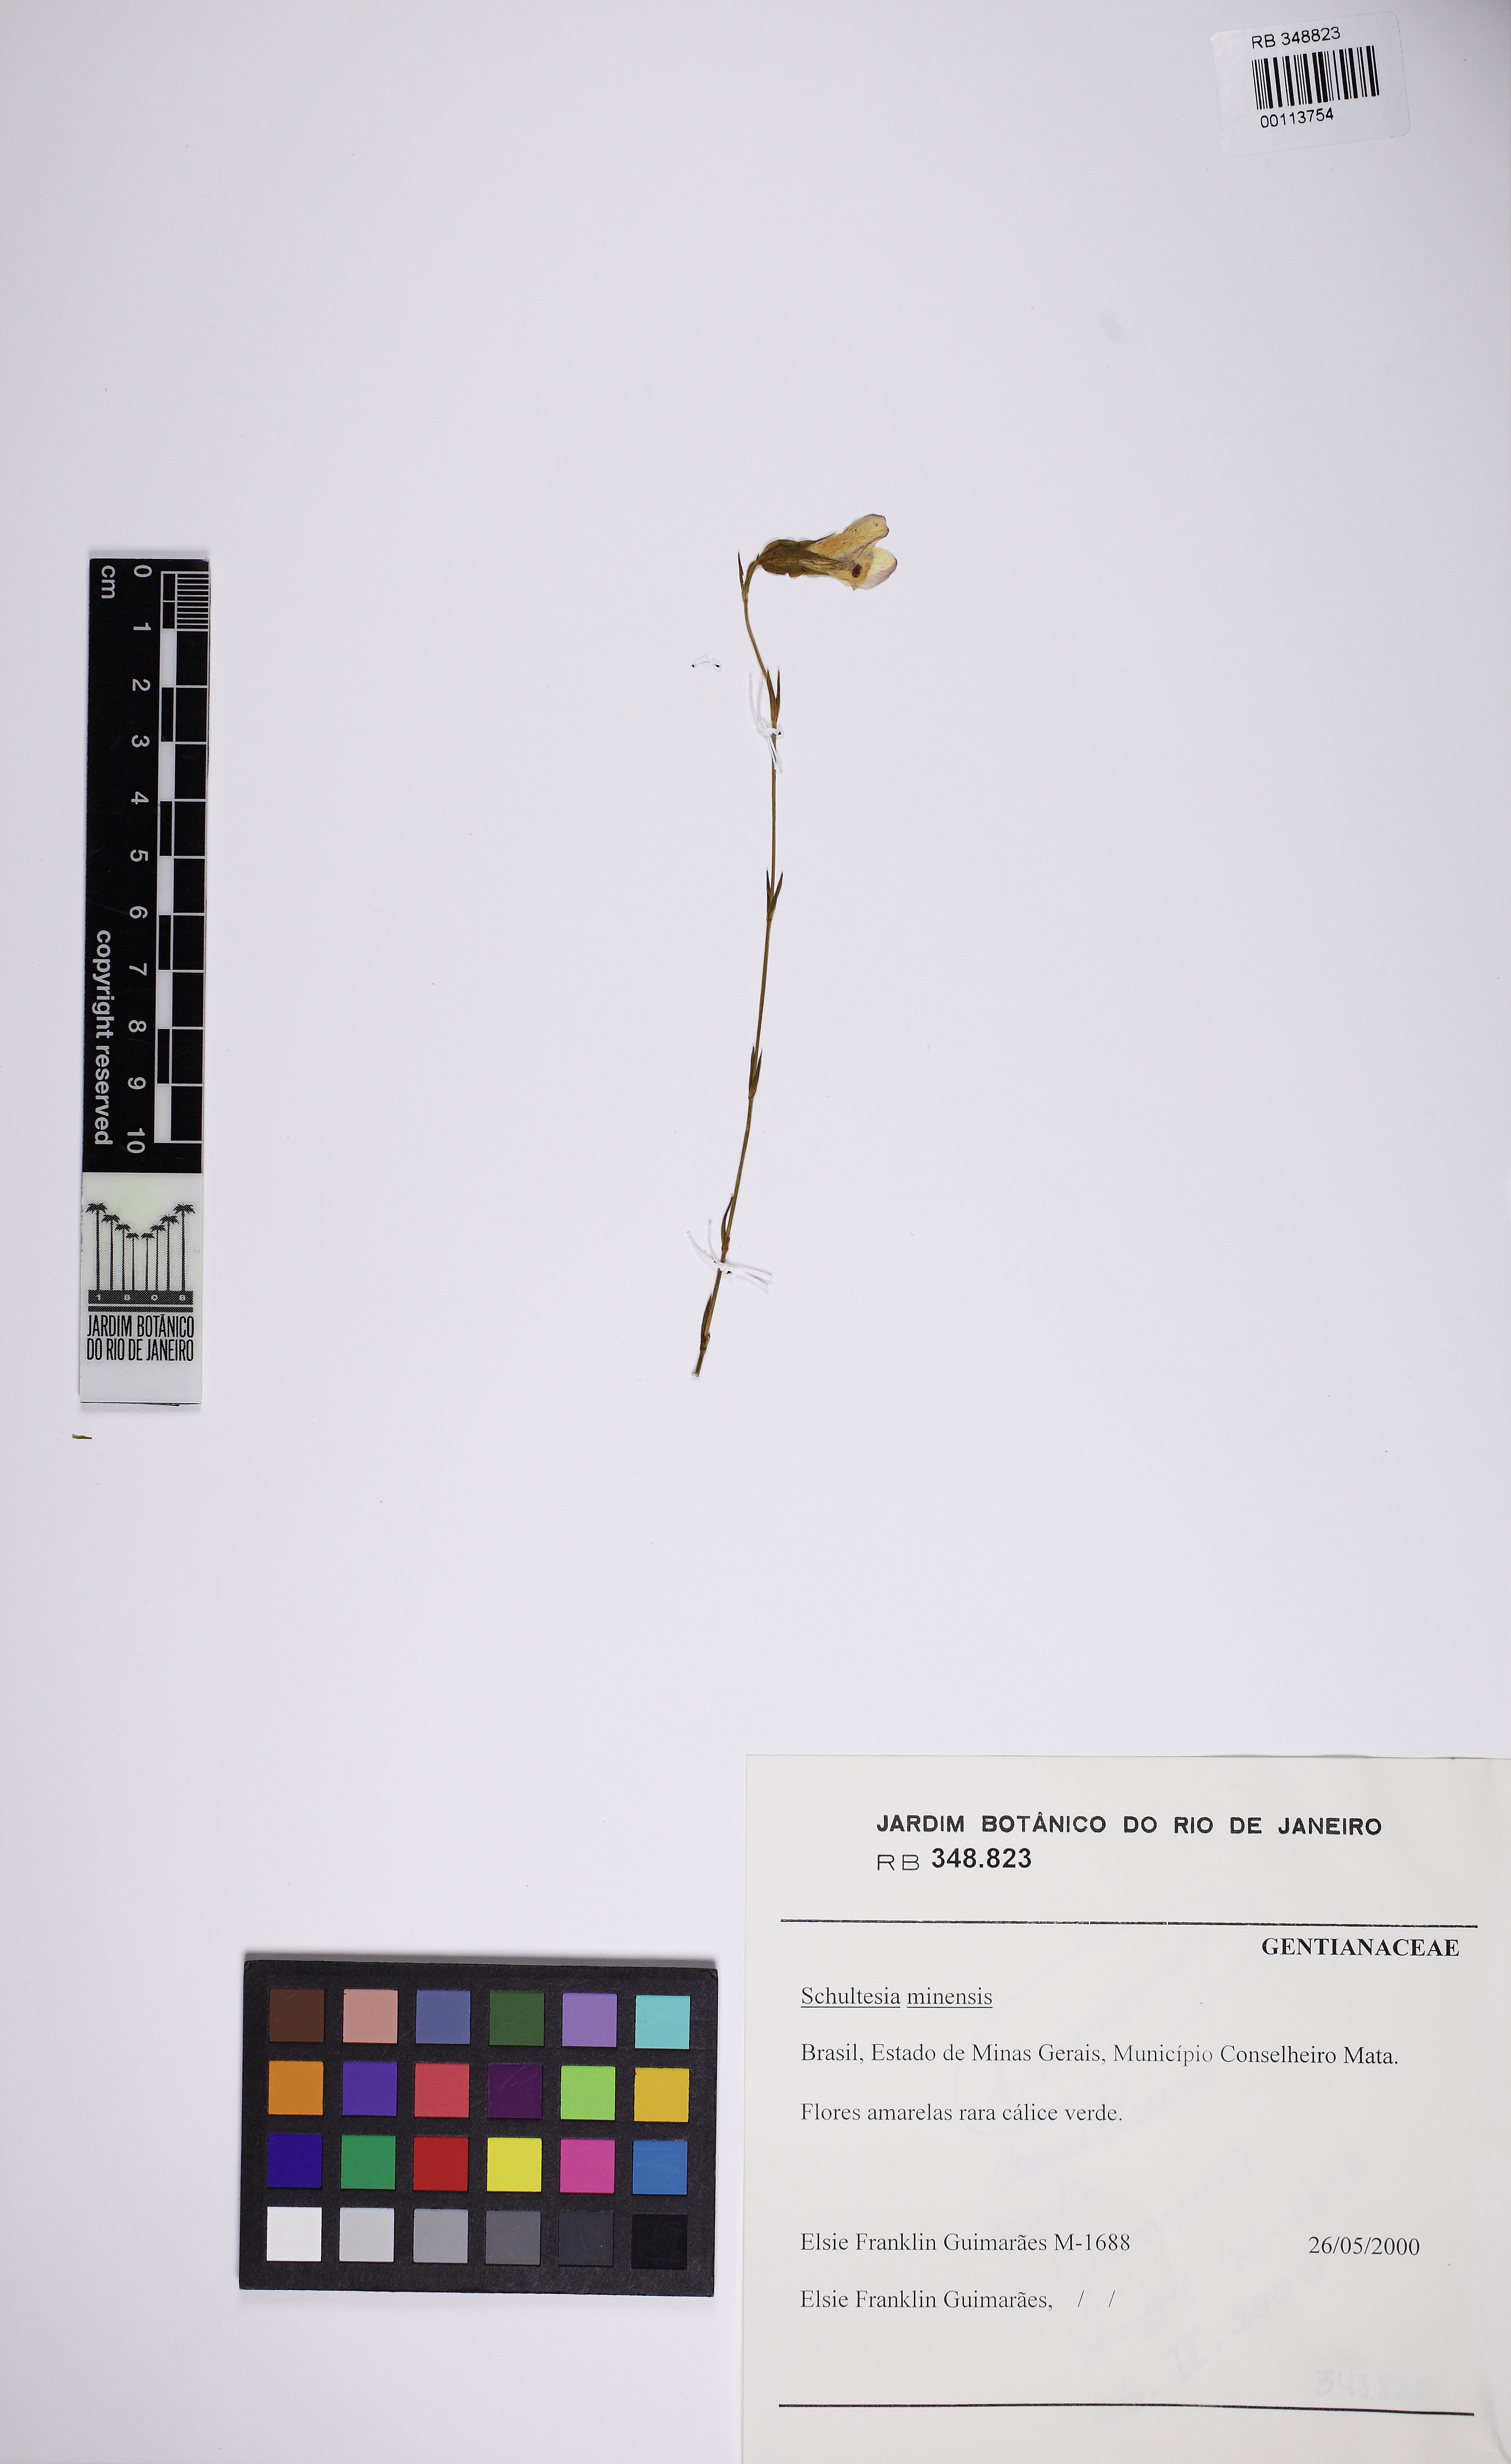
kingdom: Plantae
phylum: Tracheophyta
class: Magnoliopsida
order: Gentianales
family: Gentianaceae
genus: Schultesia
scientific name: Schultesia minensis
